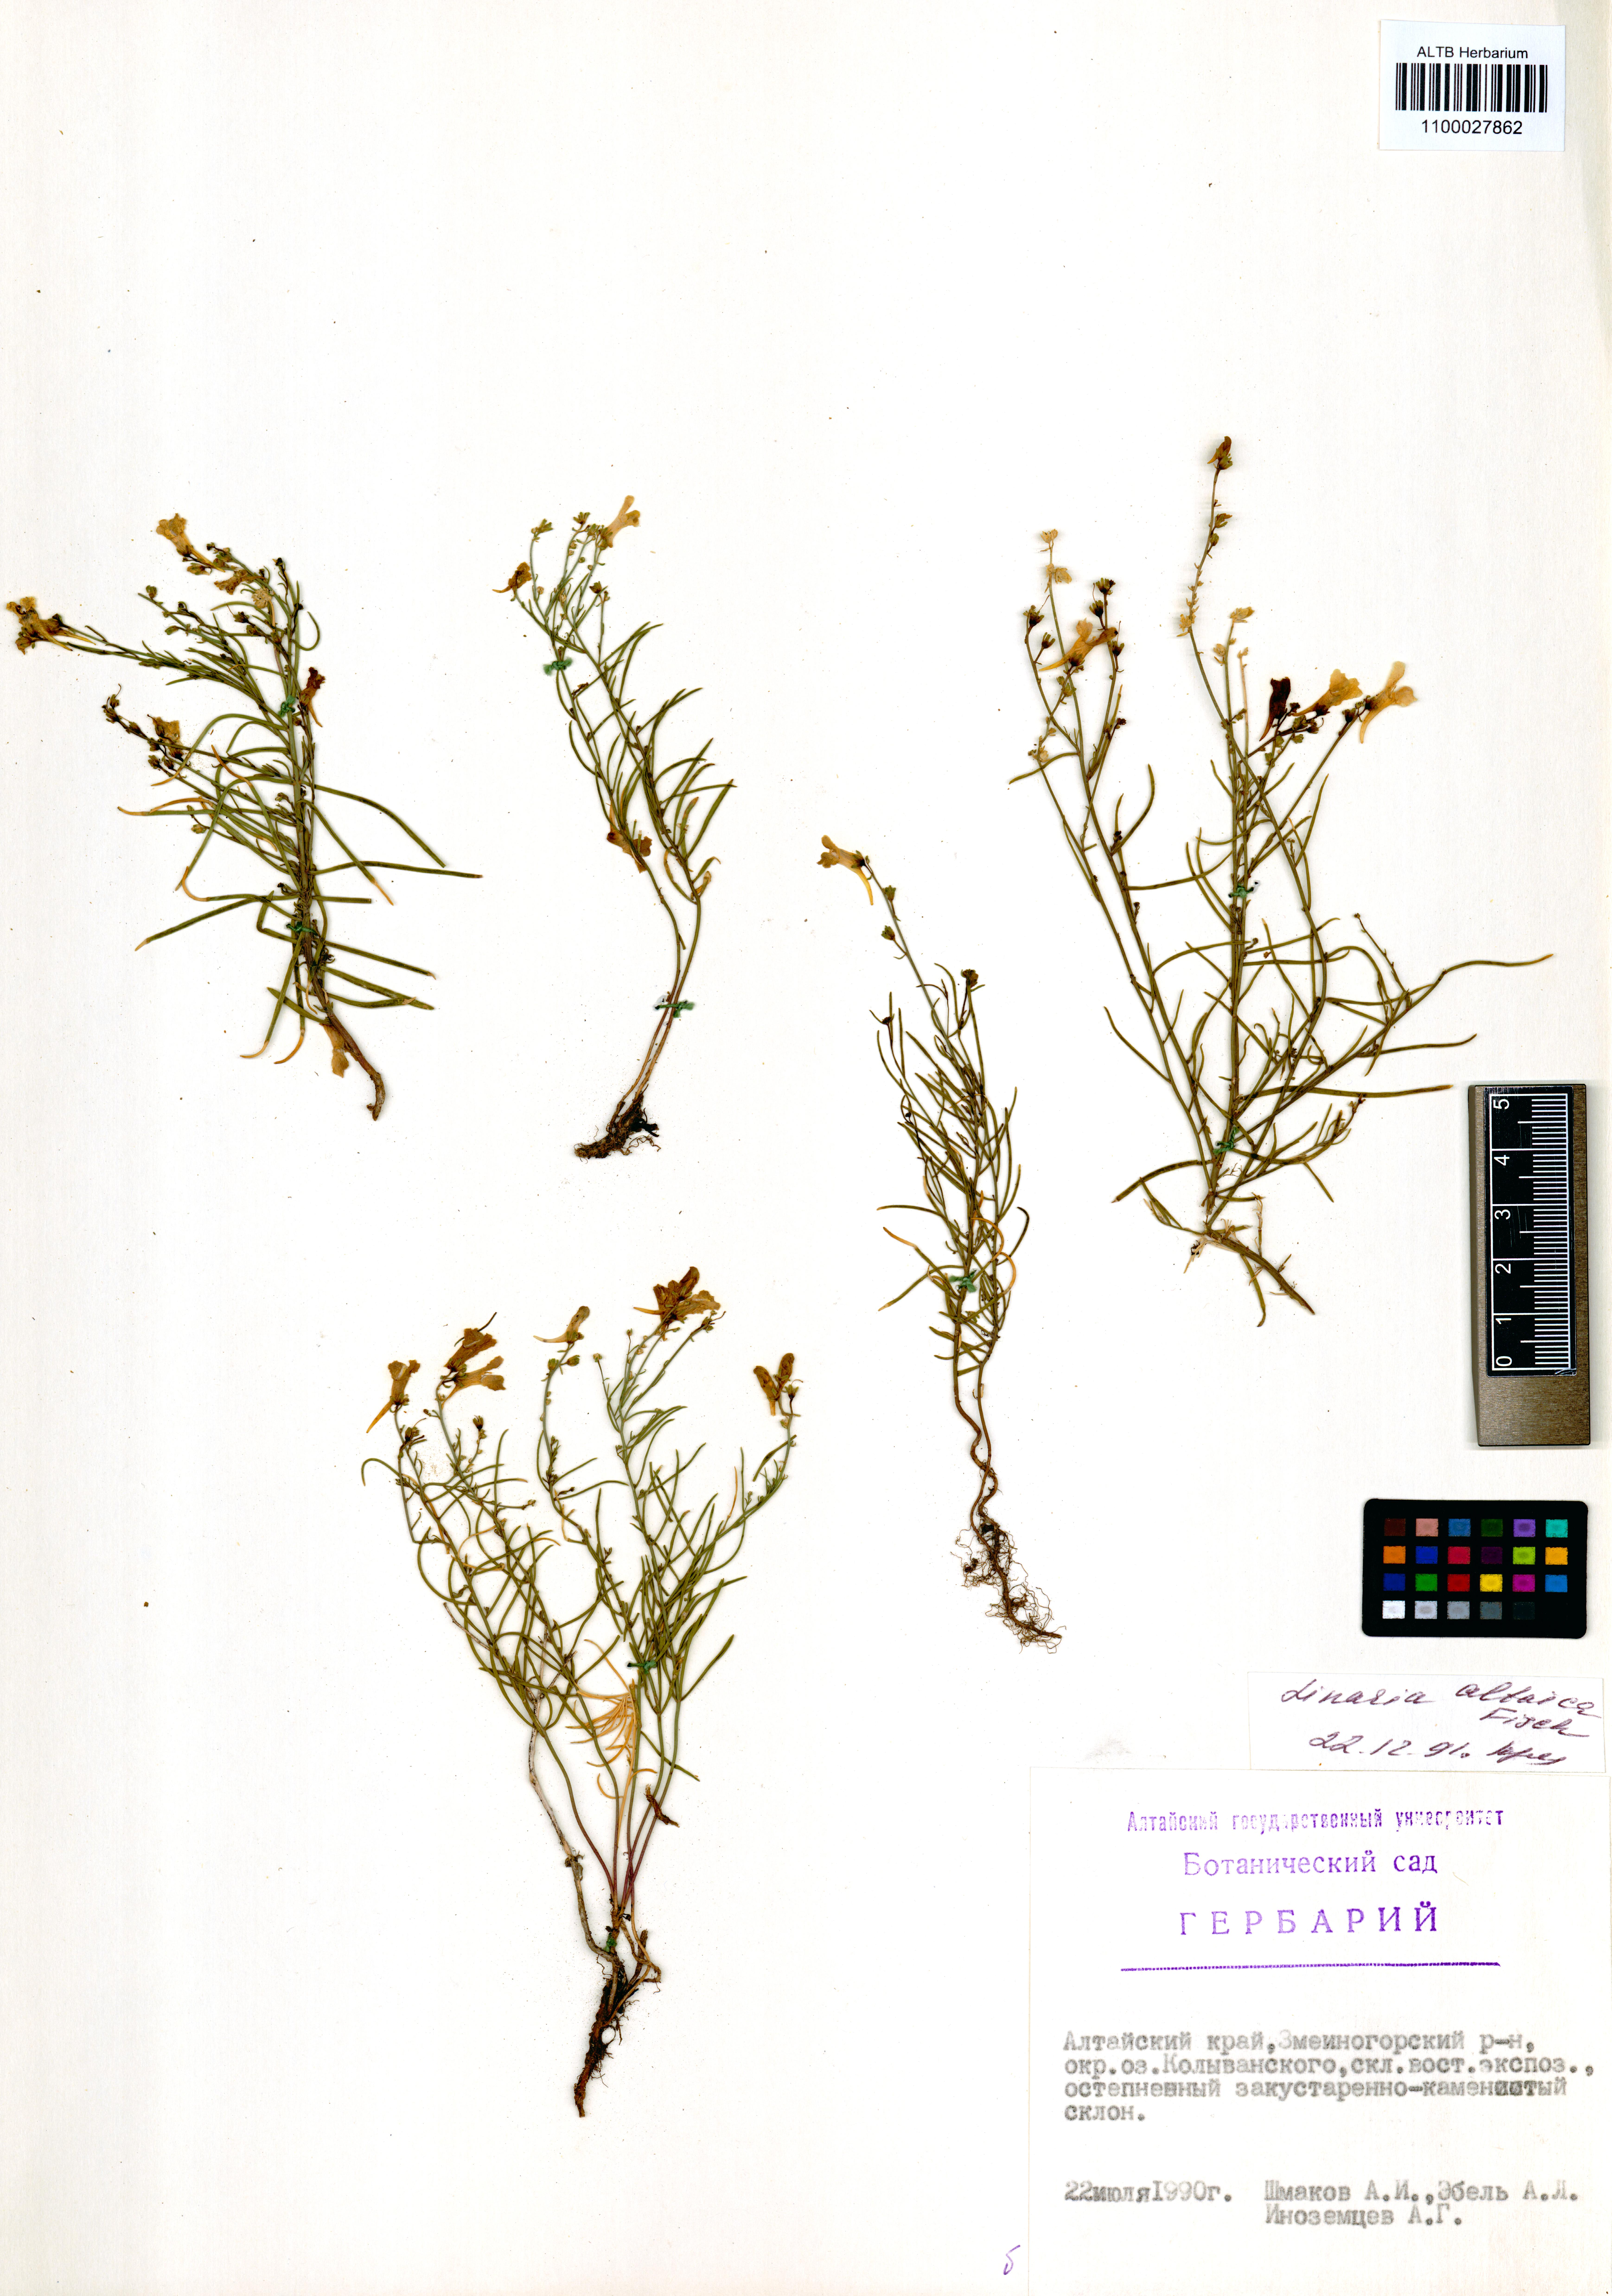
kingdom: Plantae
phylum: Tracheophyta
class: Magnoliopsida
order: Lamiales
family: Plantaginaceae
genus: Linaria
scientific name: Linaria altaica
